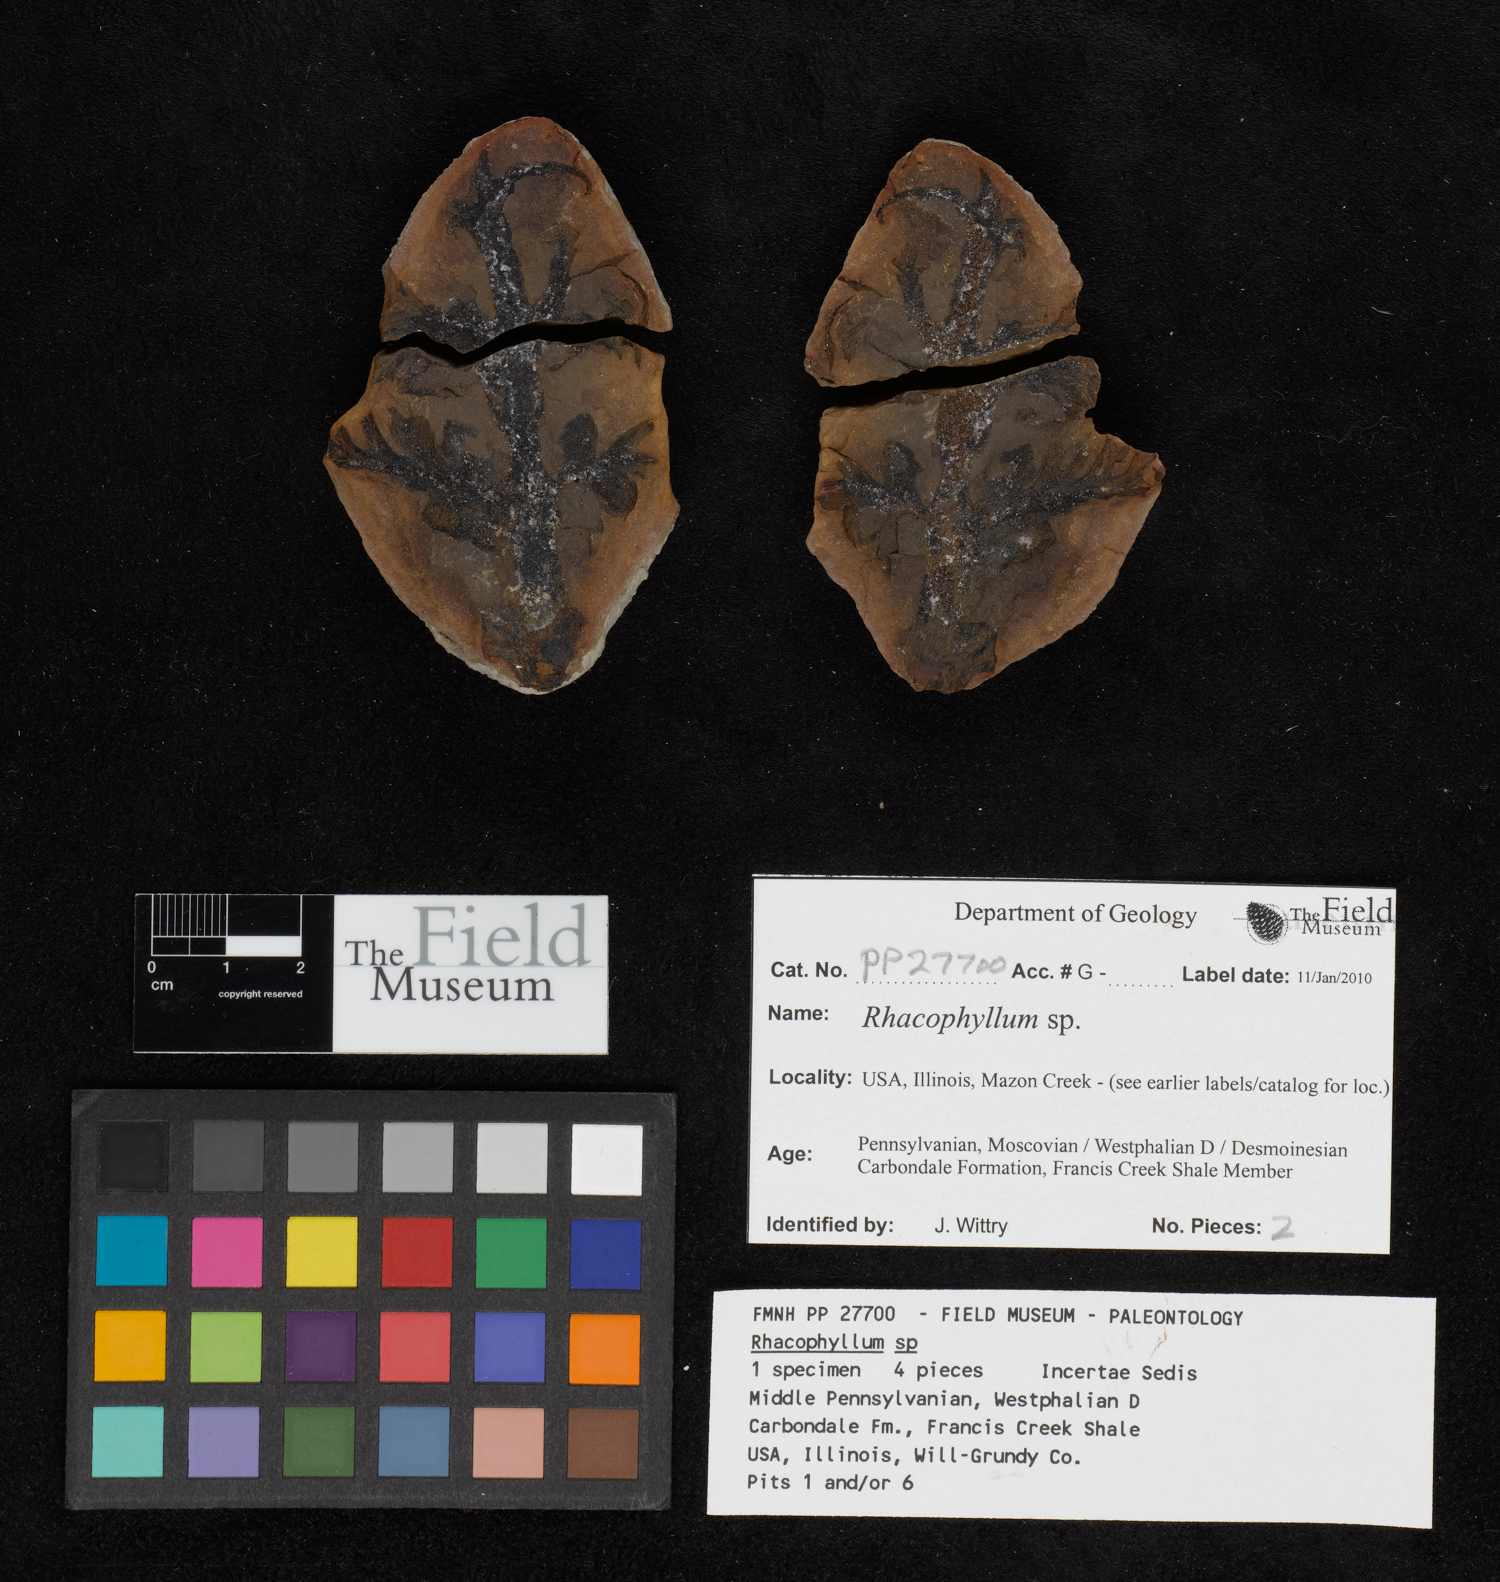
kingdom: Plantae
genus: Rhacophyllum
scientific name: Rhacophyllum
